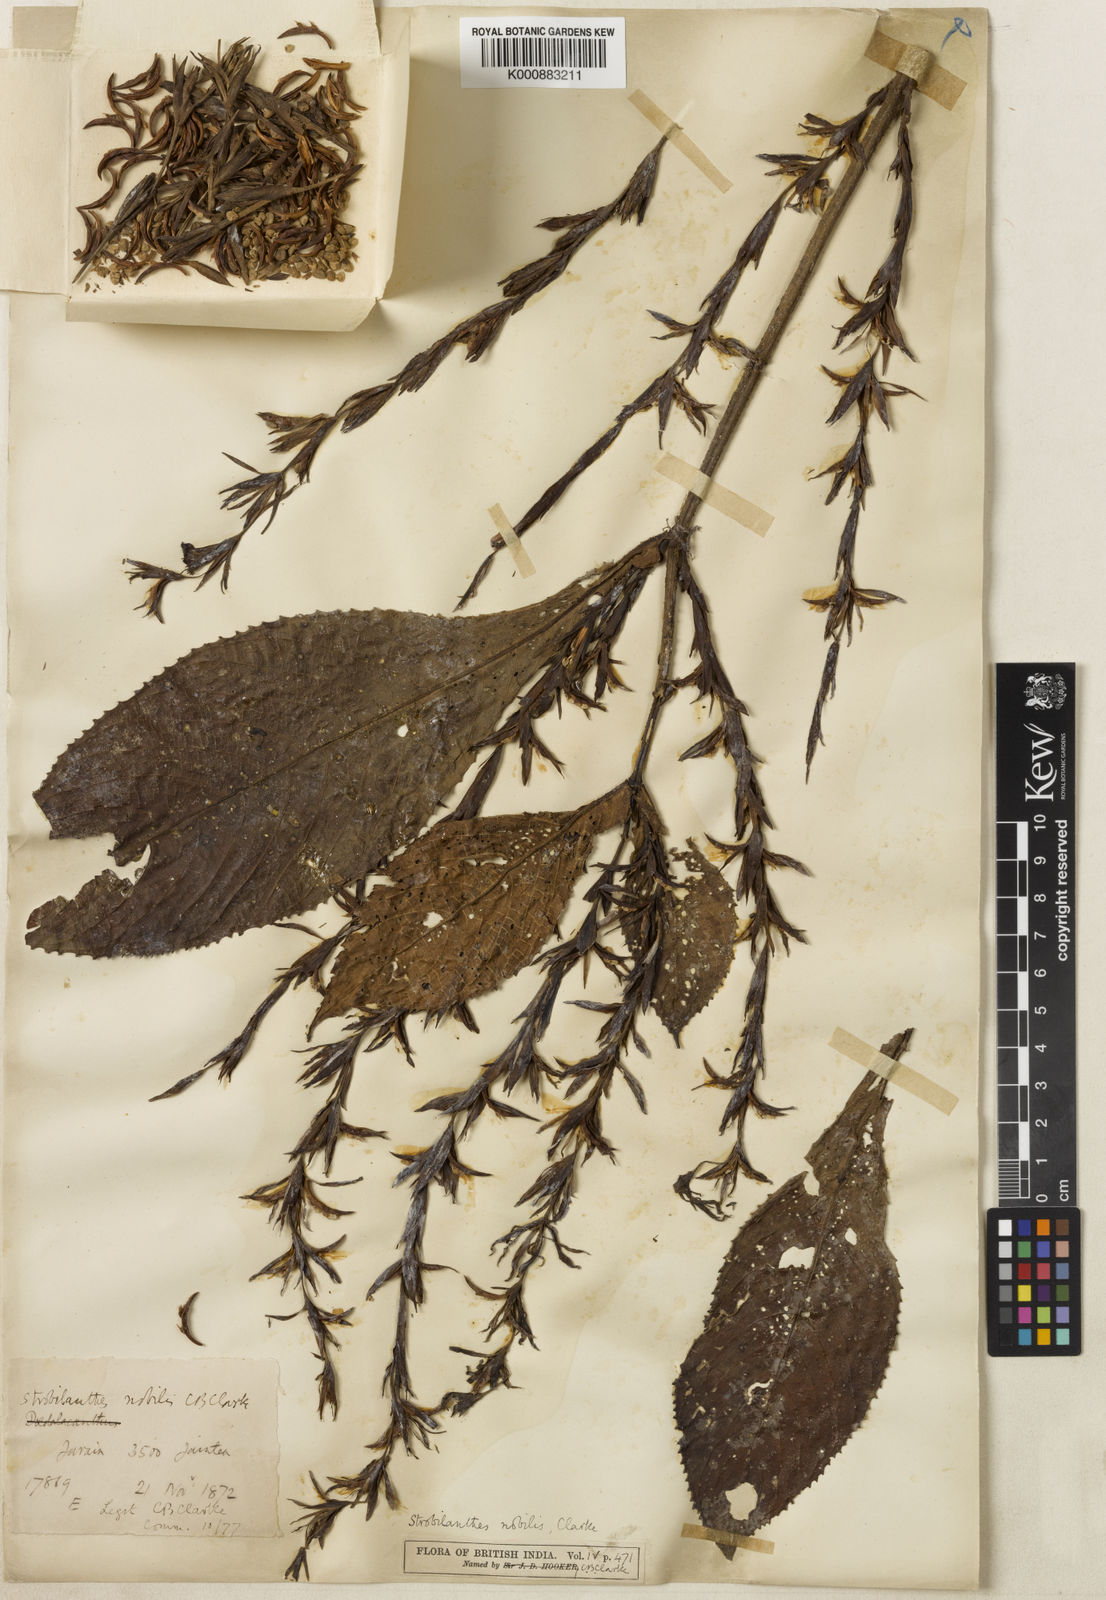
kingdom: Plantae
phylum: Tracheophyta
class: Magnoliopsida
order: Lamiales
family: Acanthaceae
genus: Strobilanthes
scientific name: Strobilanthes nobilis
